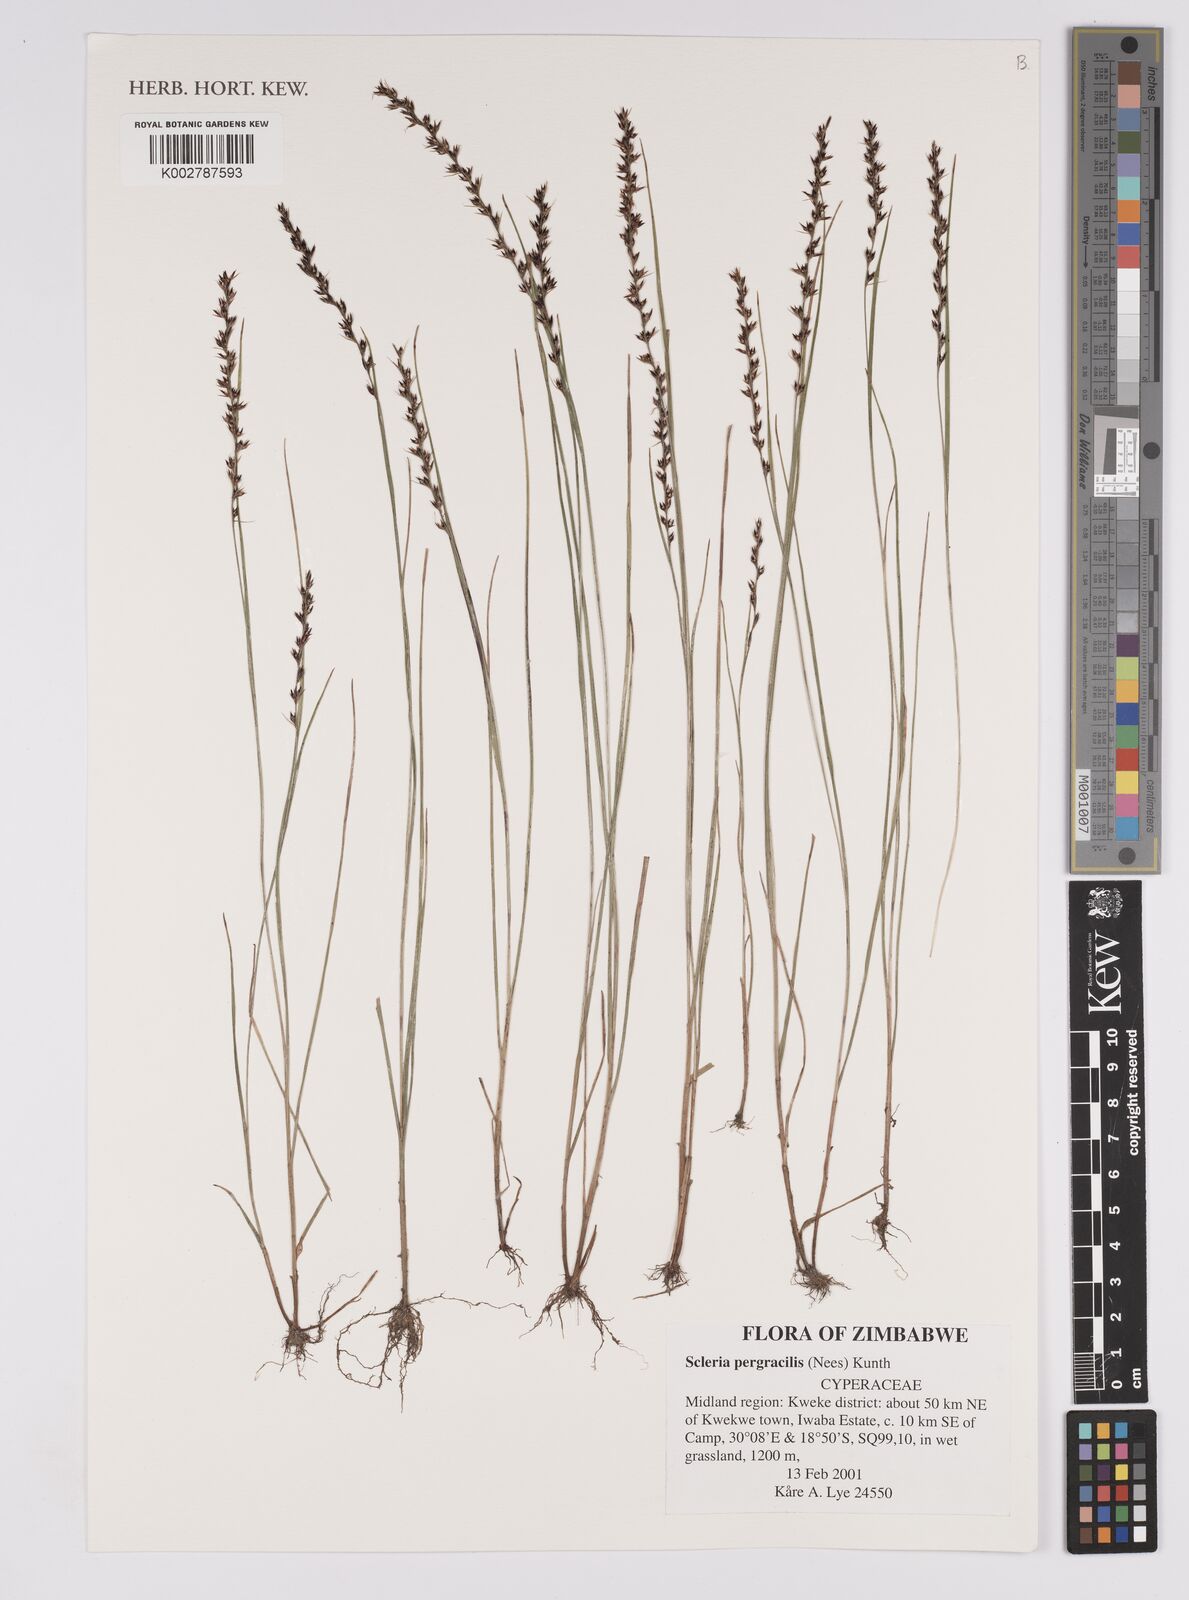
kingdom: Plantae
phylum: Tracheophyta
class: Liliopsida
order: Poales
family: Cyperaceae
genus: Scleria
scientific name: Scleria pergracilis
